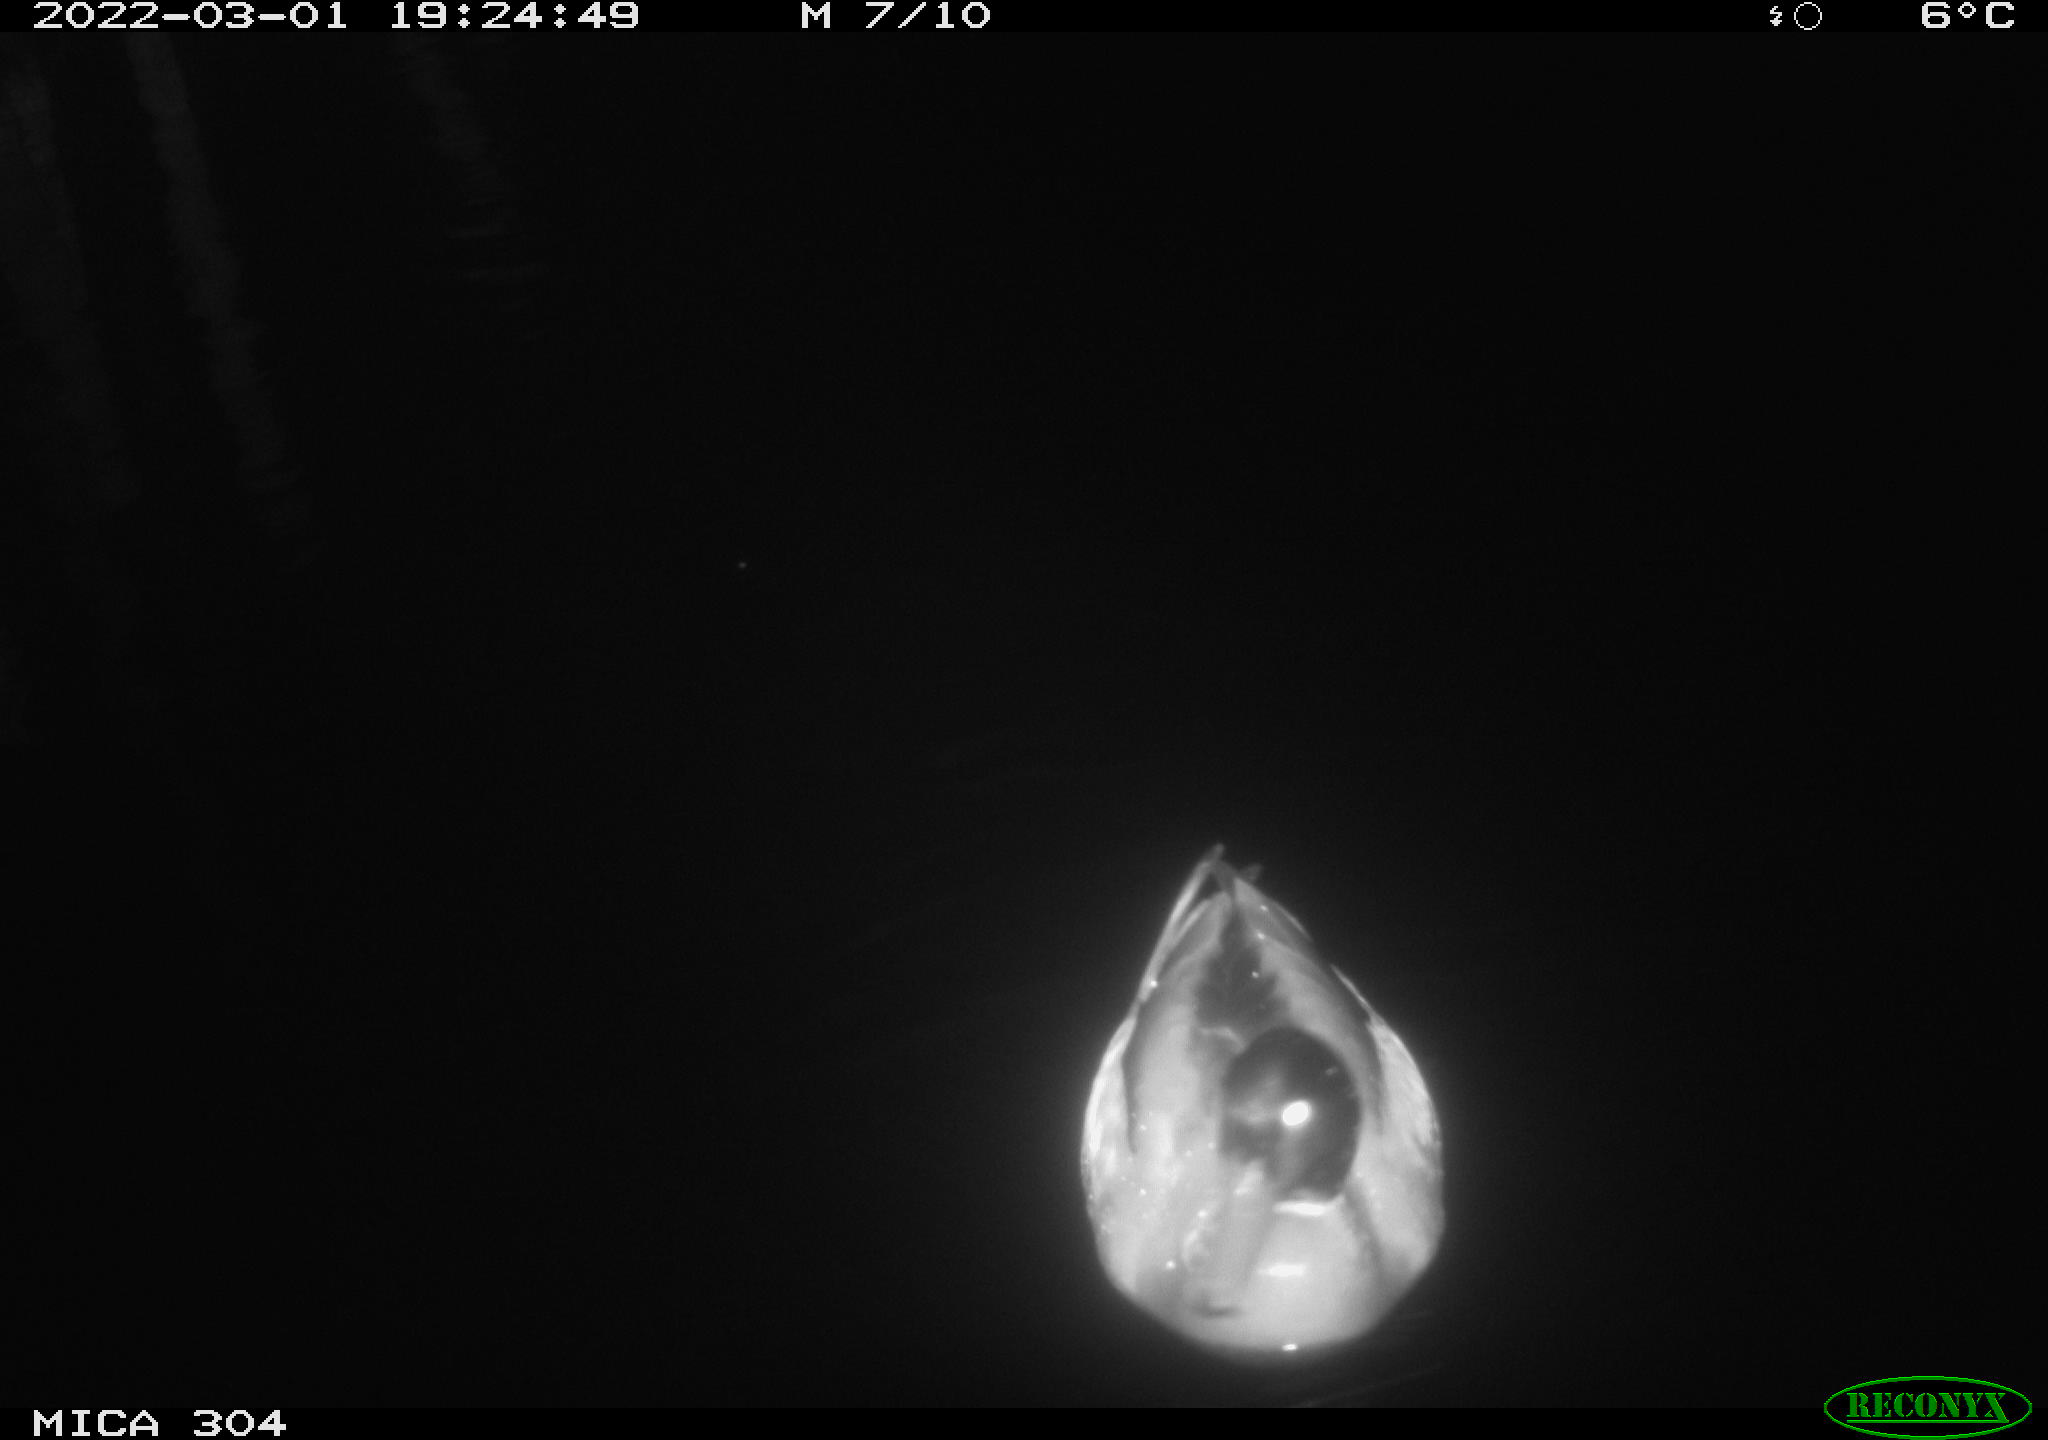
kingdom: Animalia
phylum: Chordata
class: Aves
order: Anseriformes
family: Anatidae
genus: Anas
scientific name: Anas platyrhynchos
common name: Mallard
